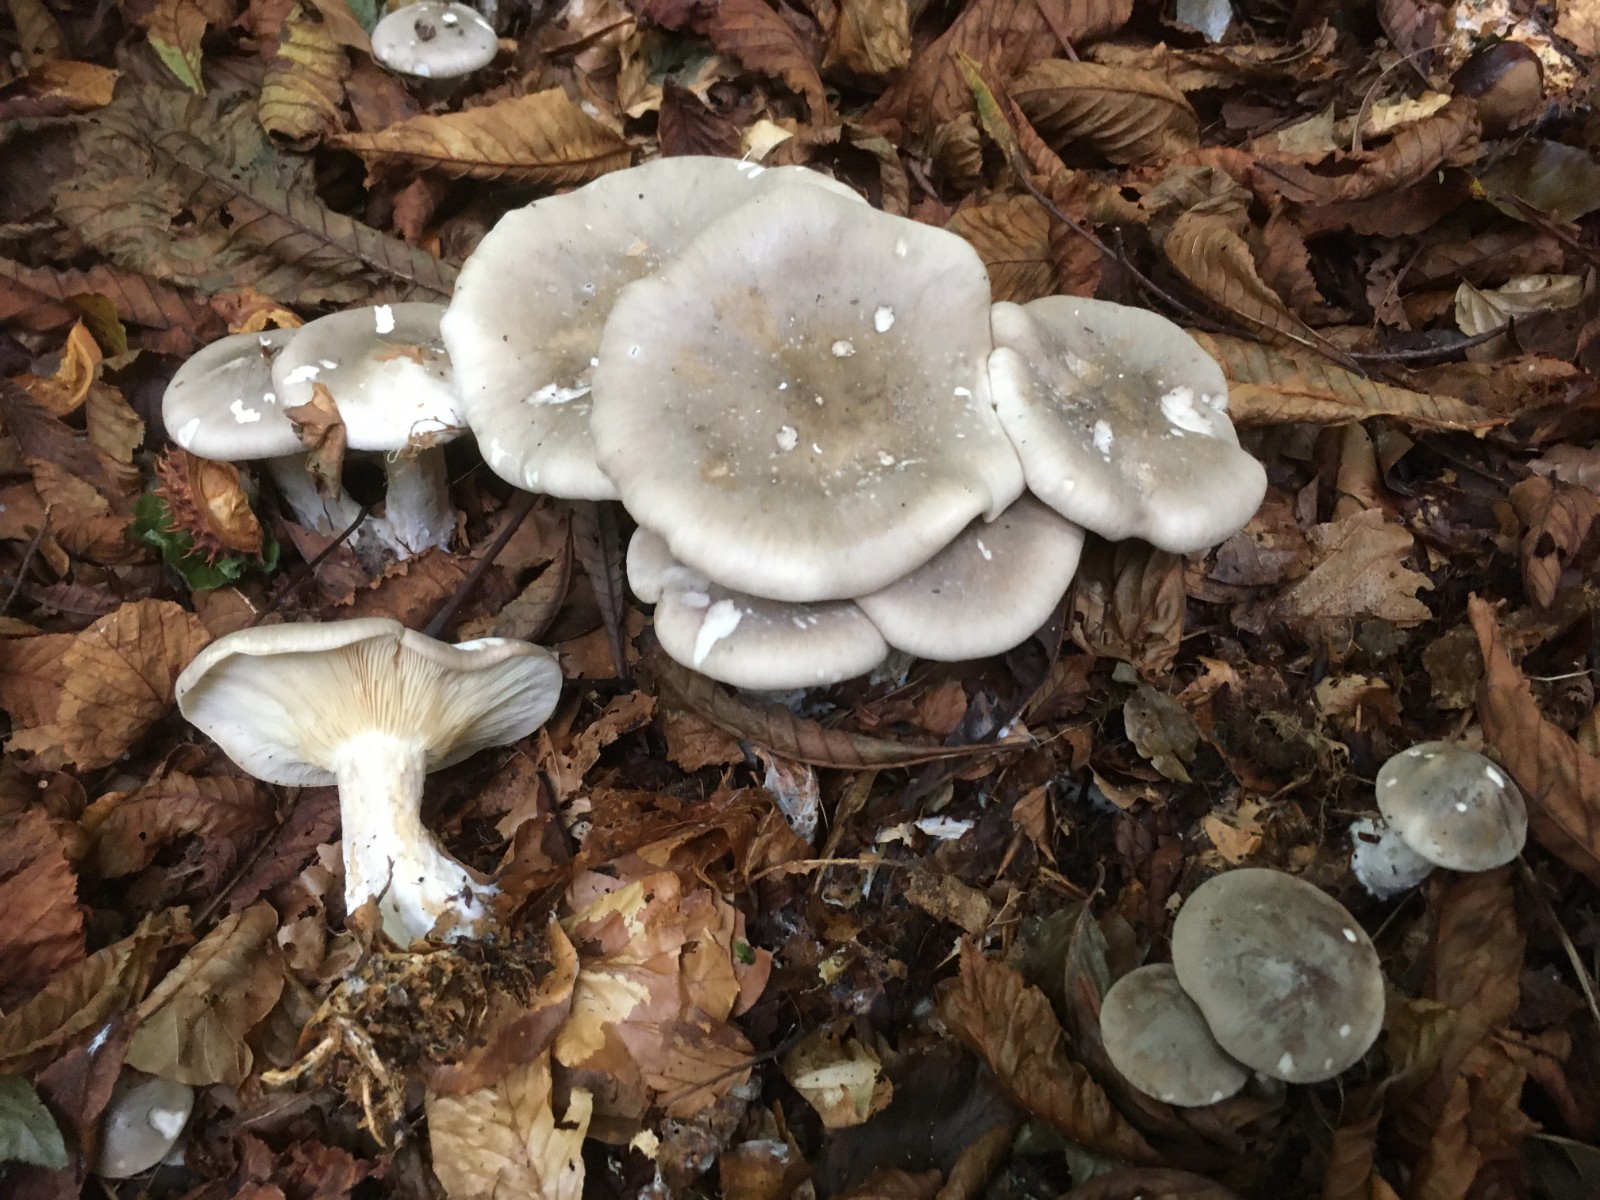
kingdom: Fungi
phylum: Basidiomycota
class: Agaricomycetes
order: Agaricales
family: Tricholomataceae
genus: Clitocybe
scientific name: Clitocybe nebularis
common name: tåge-tragthat
